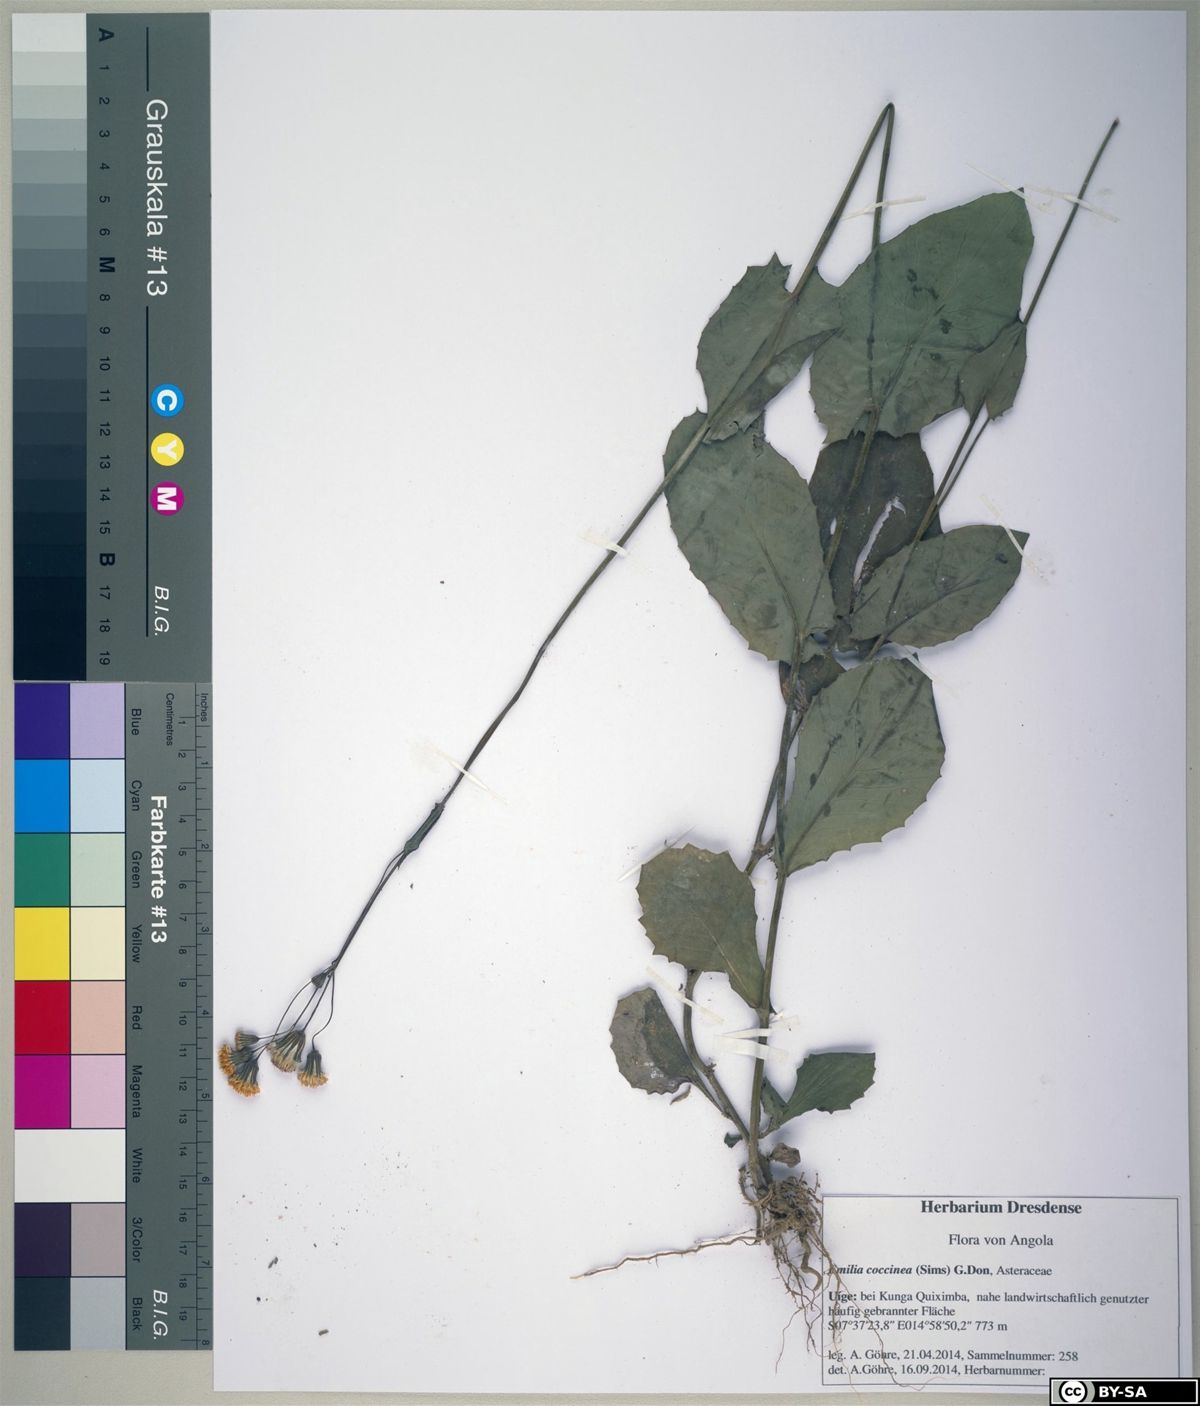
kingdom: Plantae
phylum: Tracheophyta
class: Magnoliopsida
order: Asterales
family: Asteraceae
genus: Emilia
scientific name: Emilia coccinea
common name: Scarlet tasselflower
